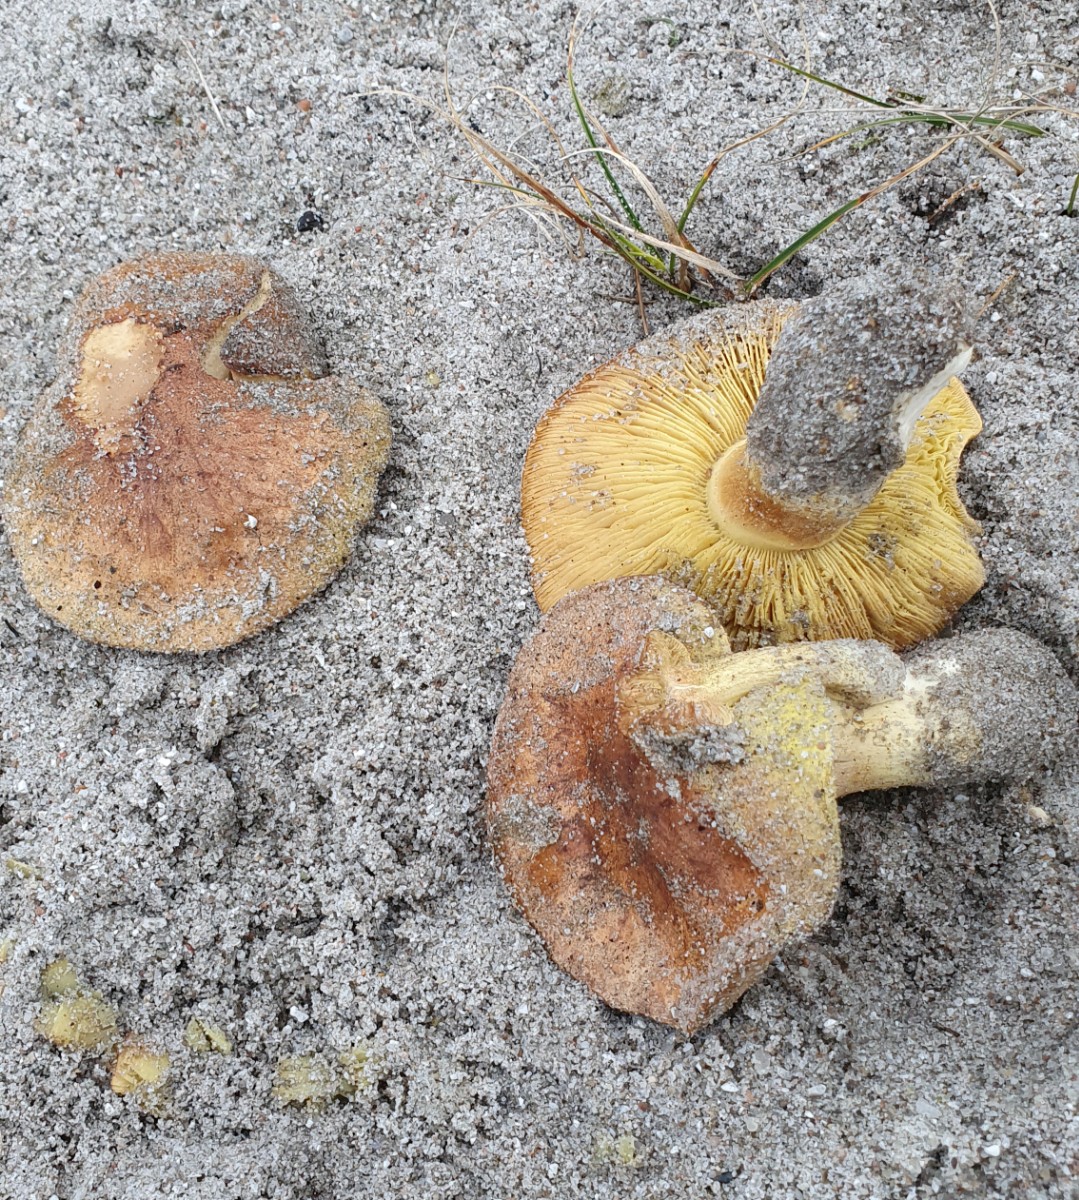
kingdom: Fungi
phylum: Basidiomycota
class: Agaricomycetes
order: Agaricales
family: Tricholomataceae
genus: Tricholoma
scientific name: Tricholoma equestre
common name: ægte ridderhat
